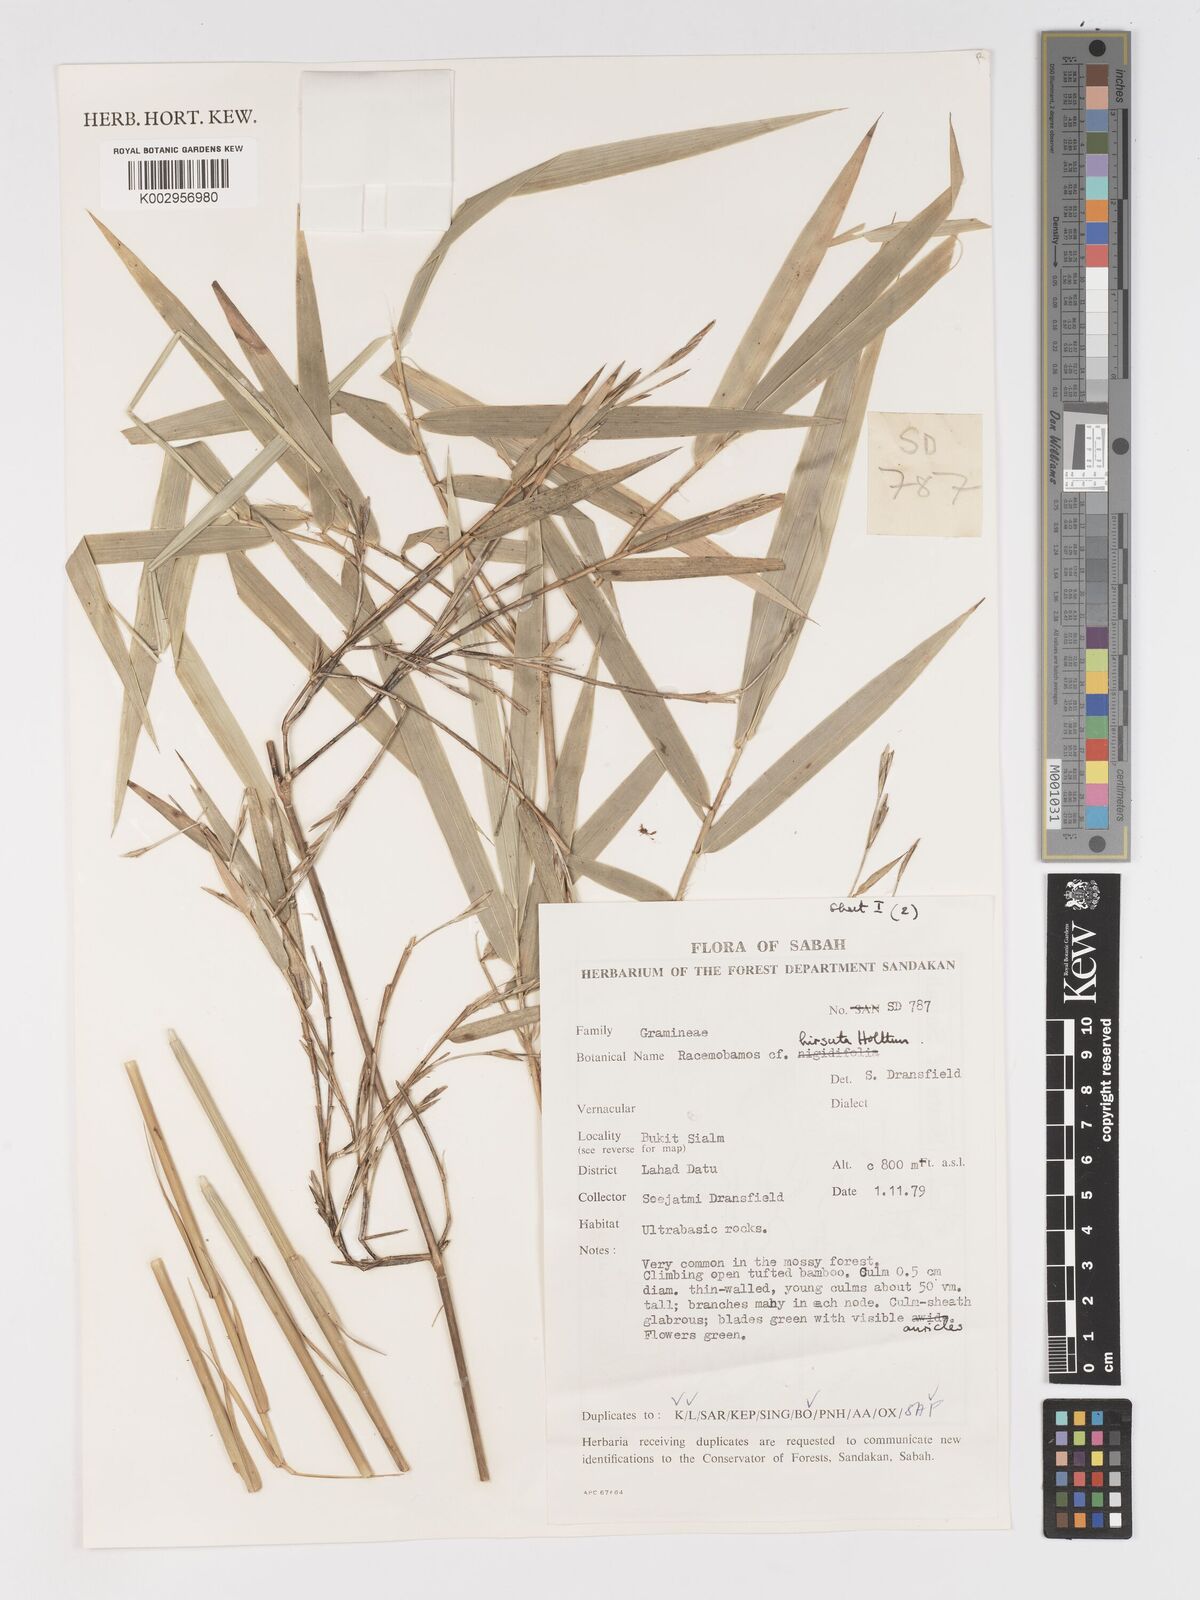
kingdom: Plantae
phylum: Tracheophyta
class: Liliopsida
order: Poales
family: Poaceae
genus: Racemobambos
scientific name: Racemobambos hirsuta
